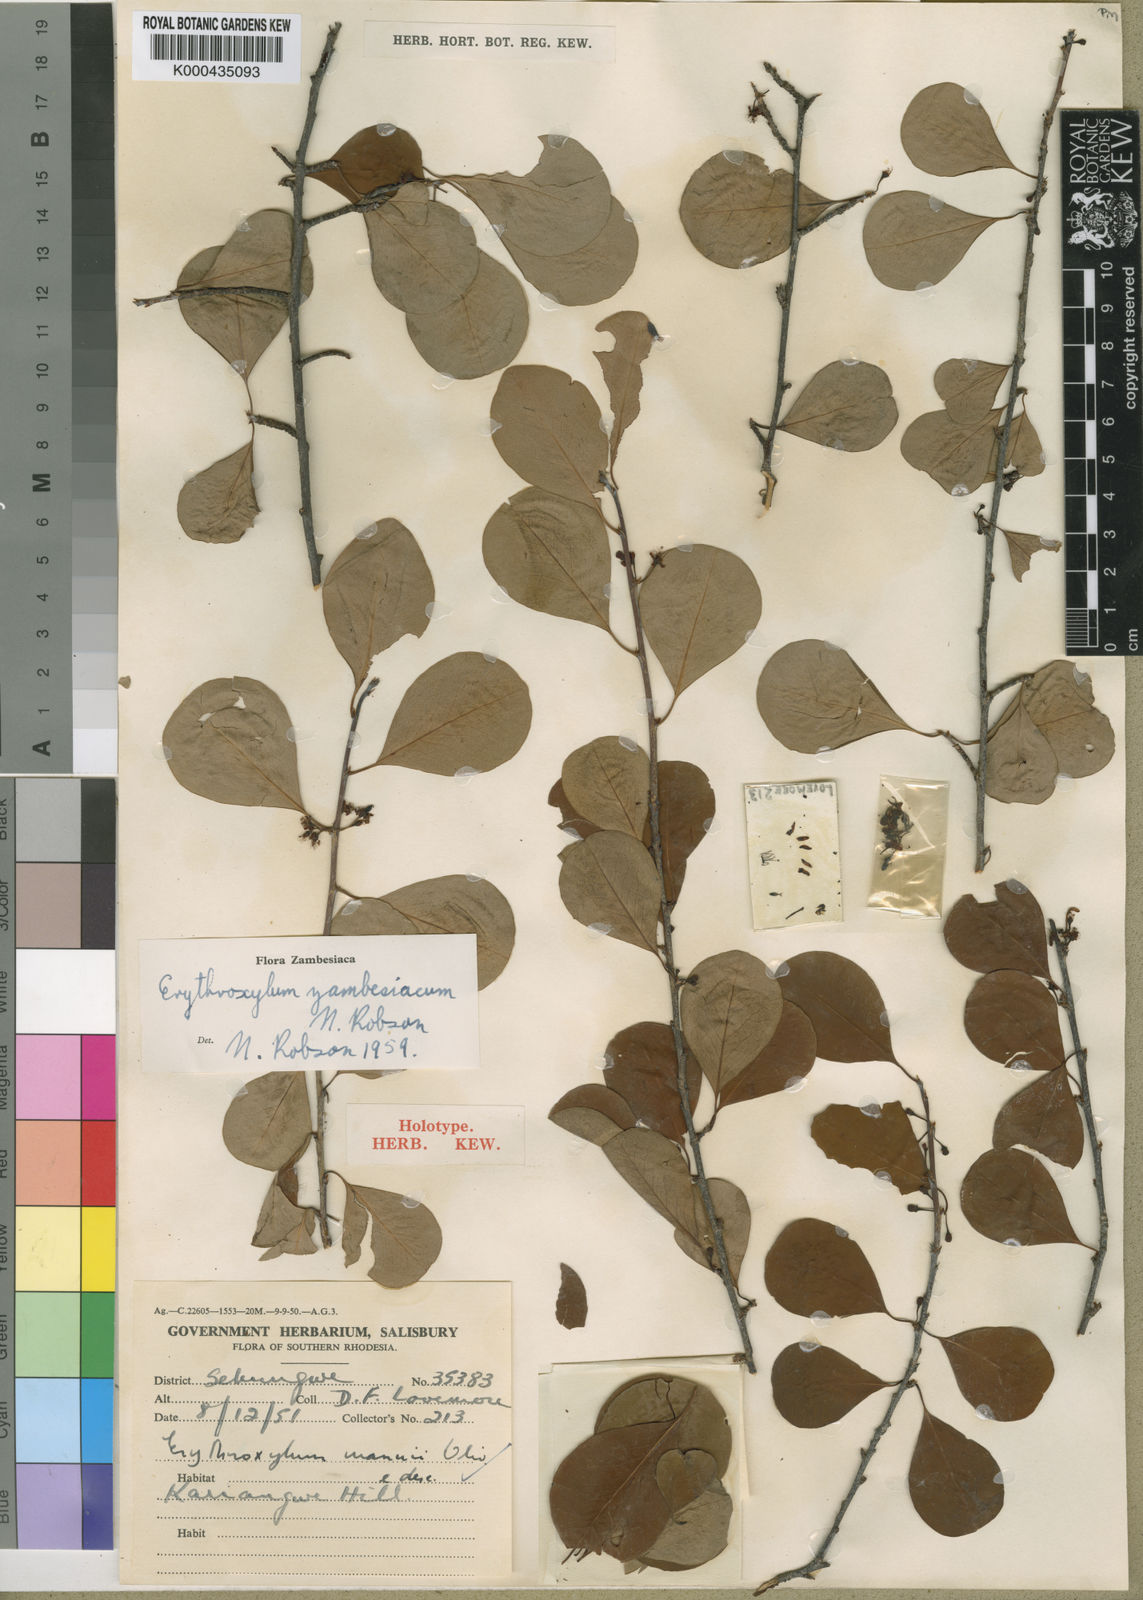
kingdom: Plantae
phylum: Tracheophyta
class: Magnoliopsida
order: Malpighiales
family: Erythroxylaceae
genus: Erythroxylum
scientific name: Erythroxylum zambesiacum
